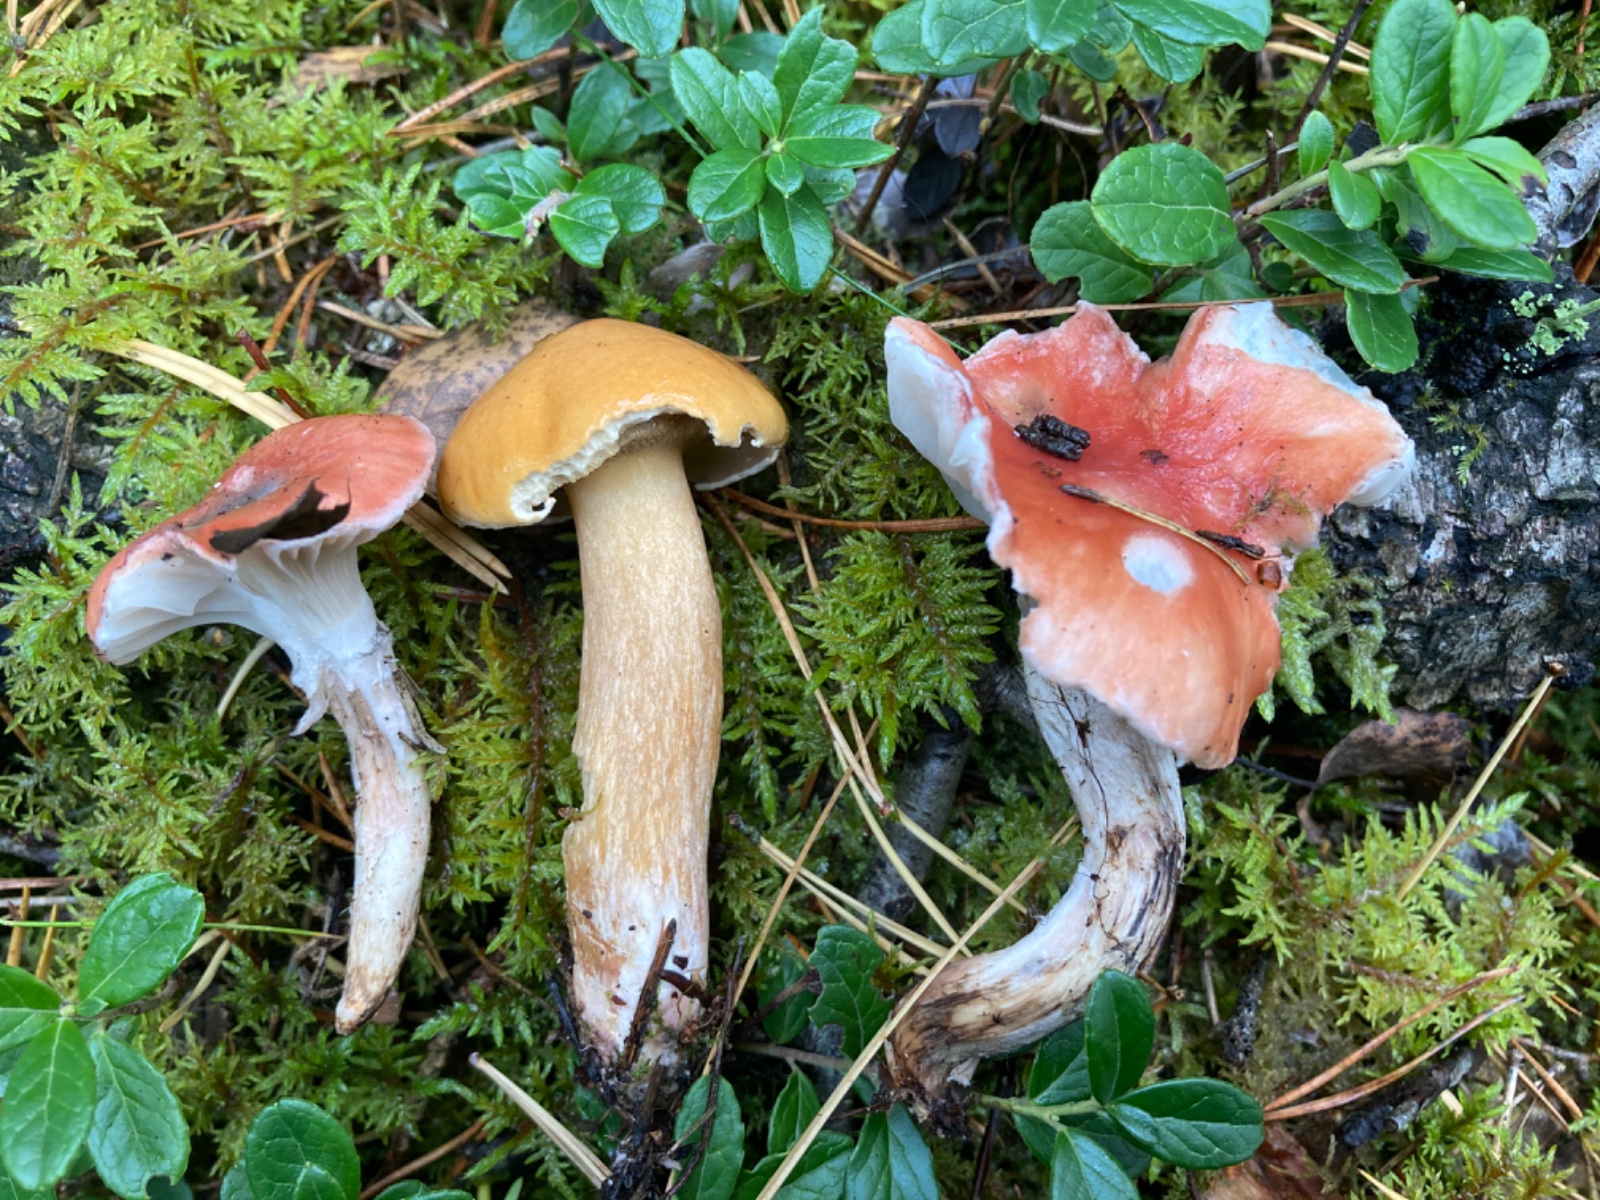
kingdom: Fungi
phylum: Basidiomycota
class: Agaricomycetes
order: Boletales
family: Gomphidiaceae
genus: Gomphidius
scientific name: Gomphidius roseus
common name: rosenrød slimslør
